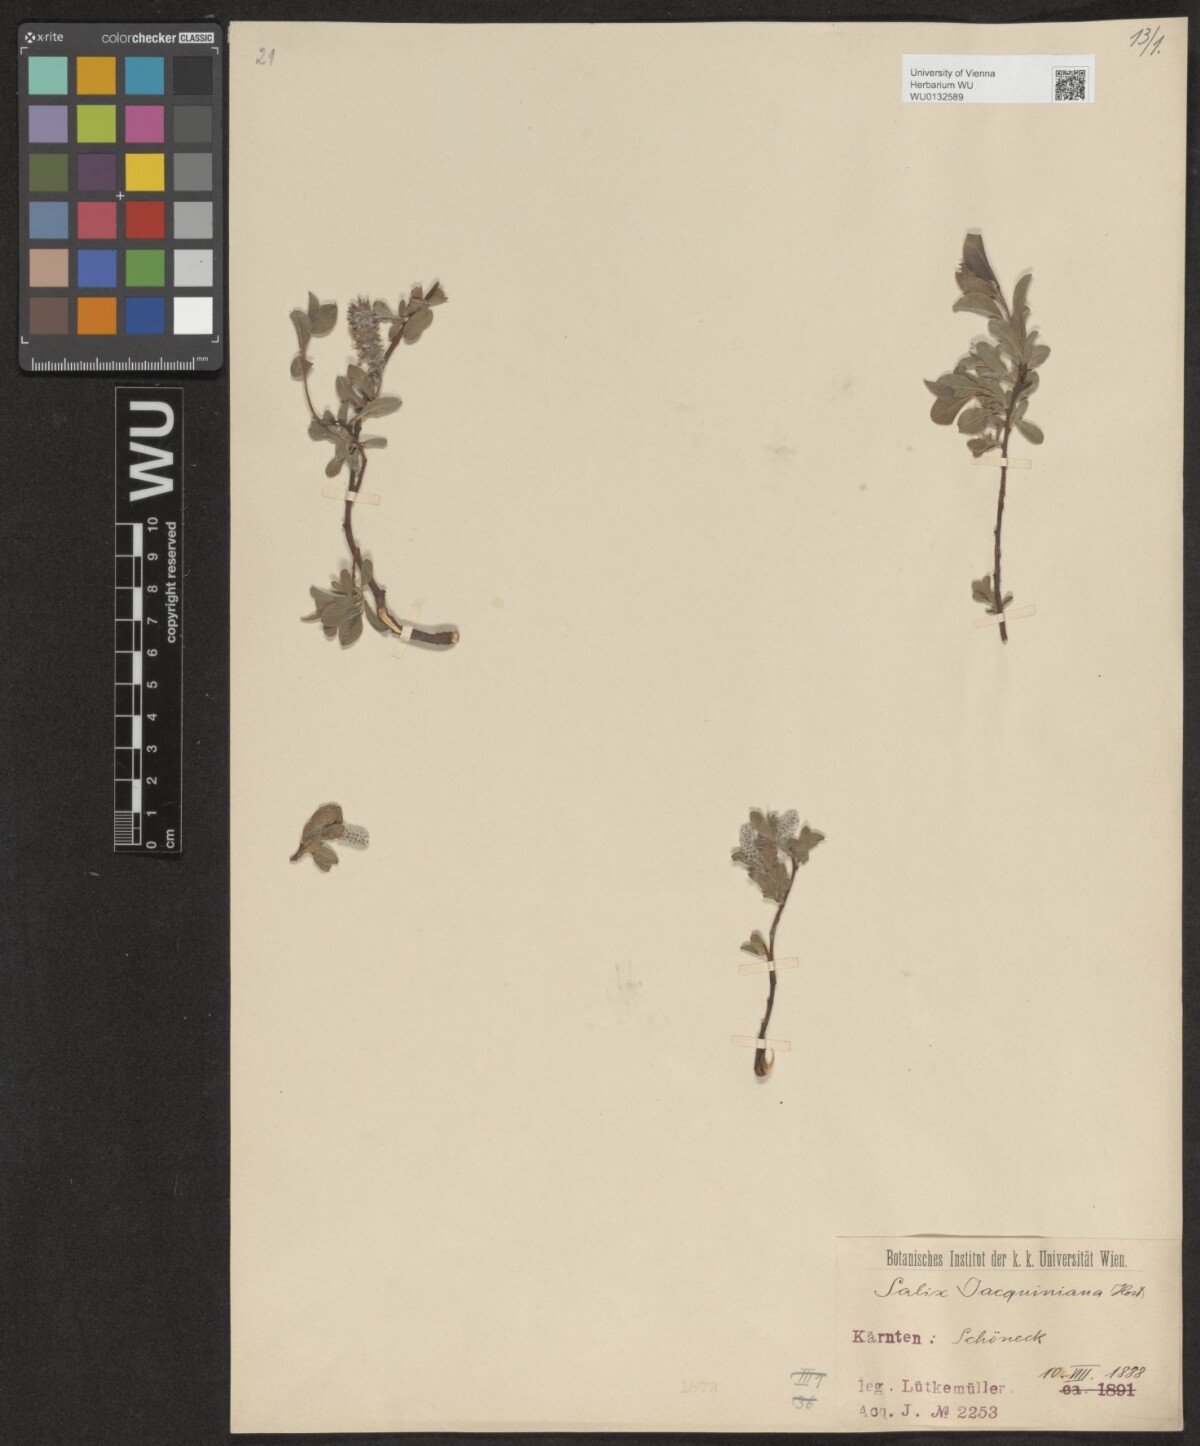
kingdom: Plantae
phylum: Tracheophyta
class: Magnoliopsida
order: Malpighiales
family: Salicaceae
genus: Salix
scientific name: Salix alpina
